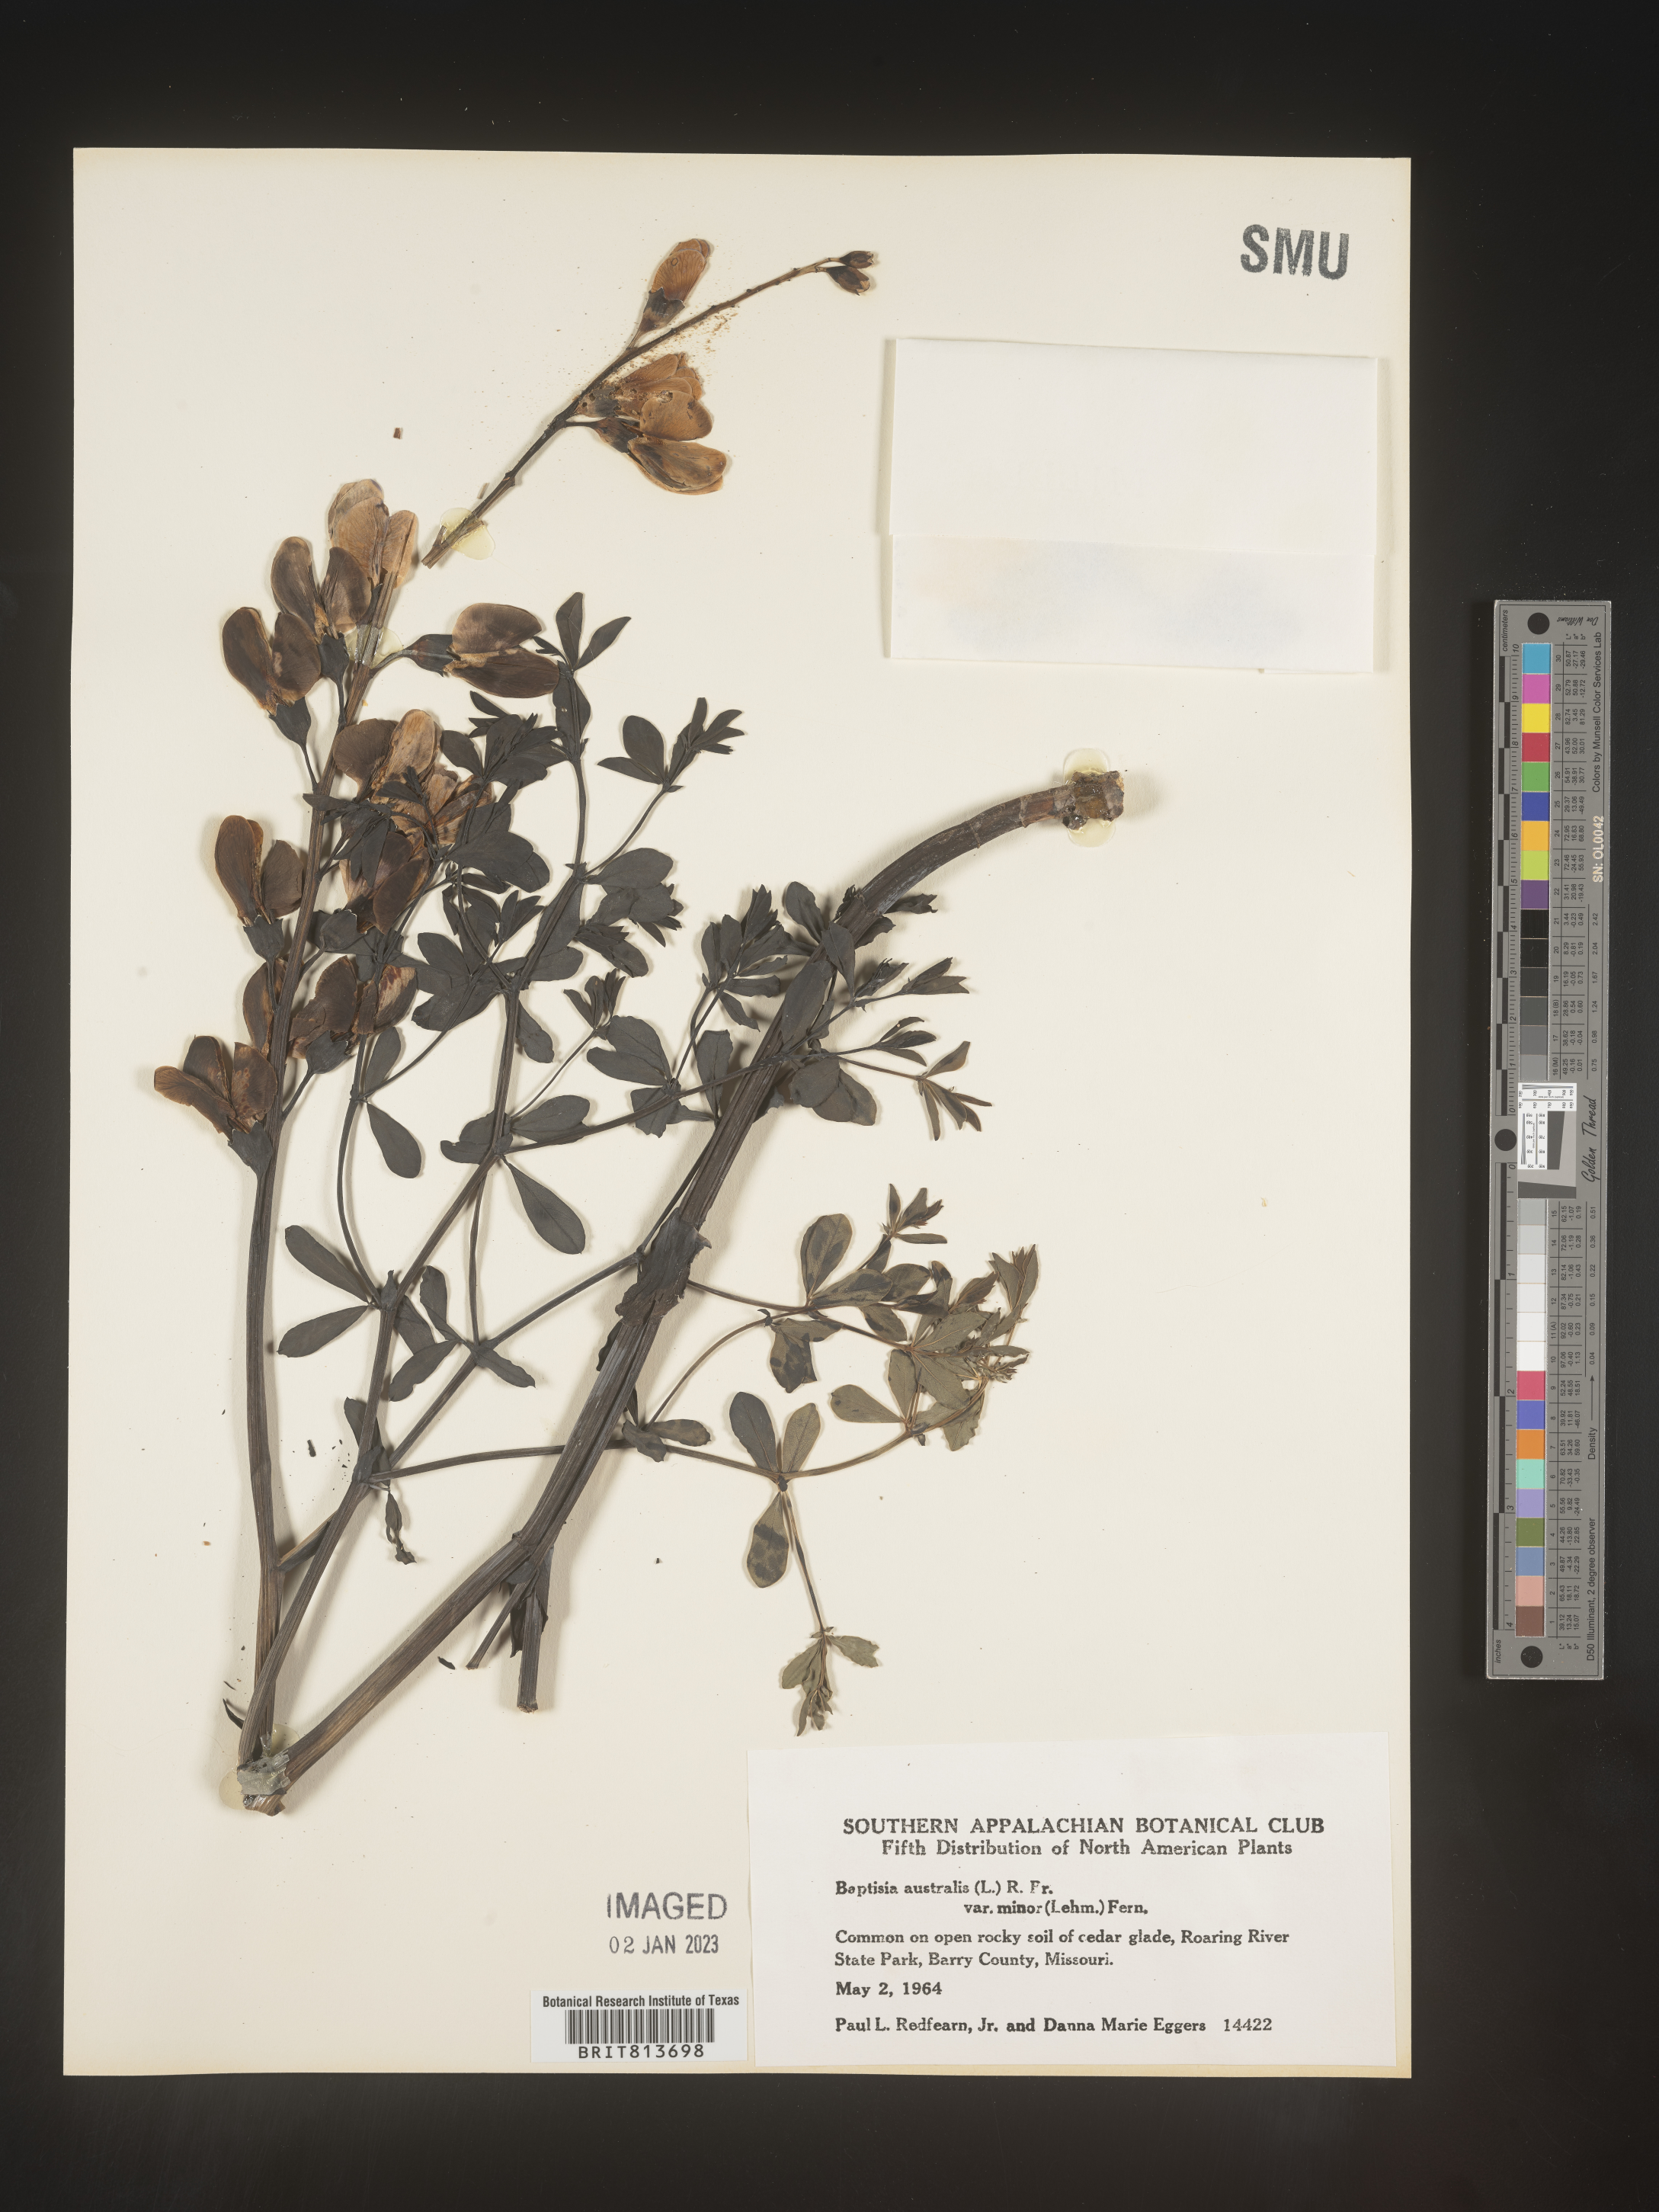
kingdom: Plantae
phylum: Tracheophyta
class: Magnoliopsida
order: Fabales
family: Fabaceae
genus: Baptisia
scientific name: Baptisia australis
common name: Blue false indigo
